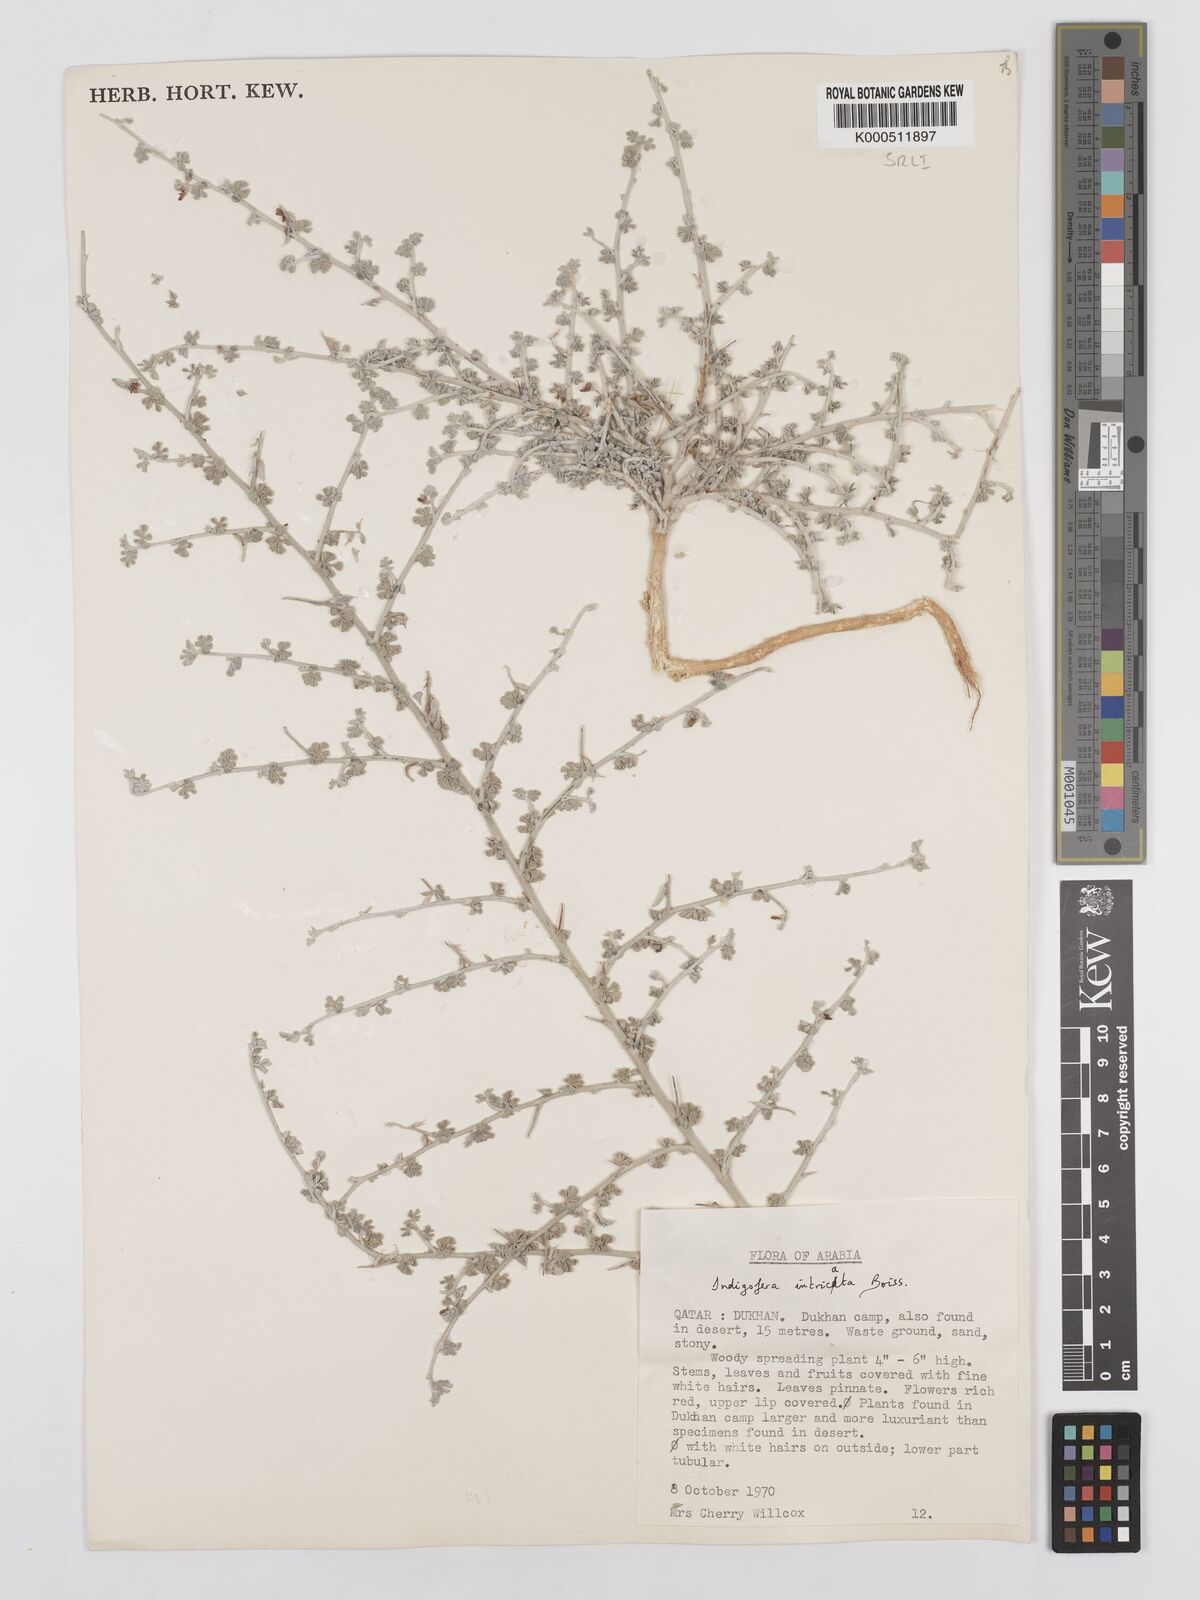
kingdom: Plantae
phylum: Tracheophyta
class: Magnoliopsida
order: Fabales
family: Fabaceae
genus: Indigofera
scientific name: Indigofera intricata
